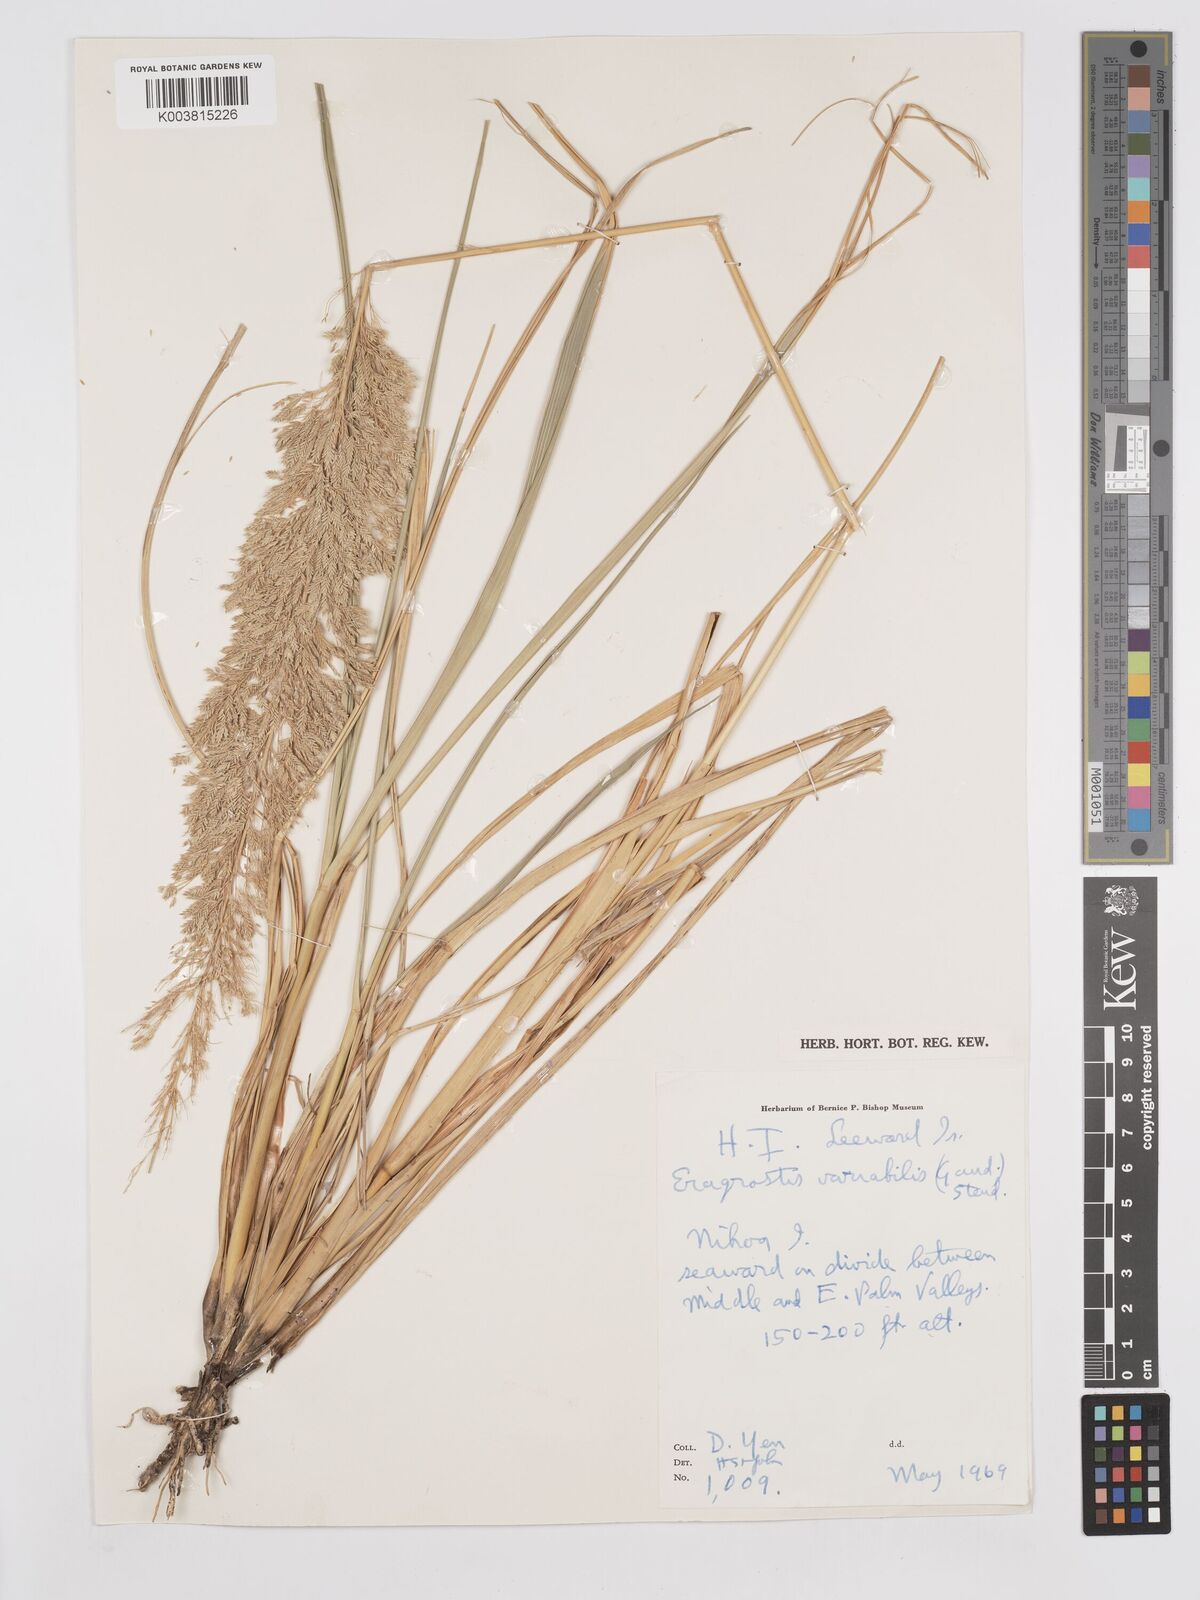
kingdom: Plantae
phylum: Tracheophyta
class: Liliopsida
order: Poales
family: Poaceae
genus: Eragrostis
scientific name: Eragrostis variabilis
